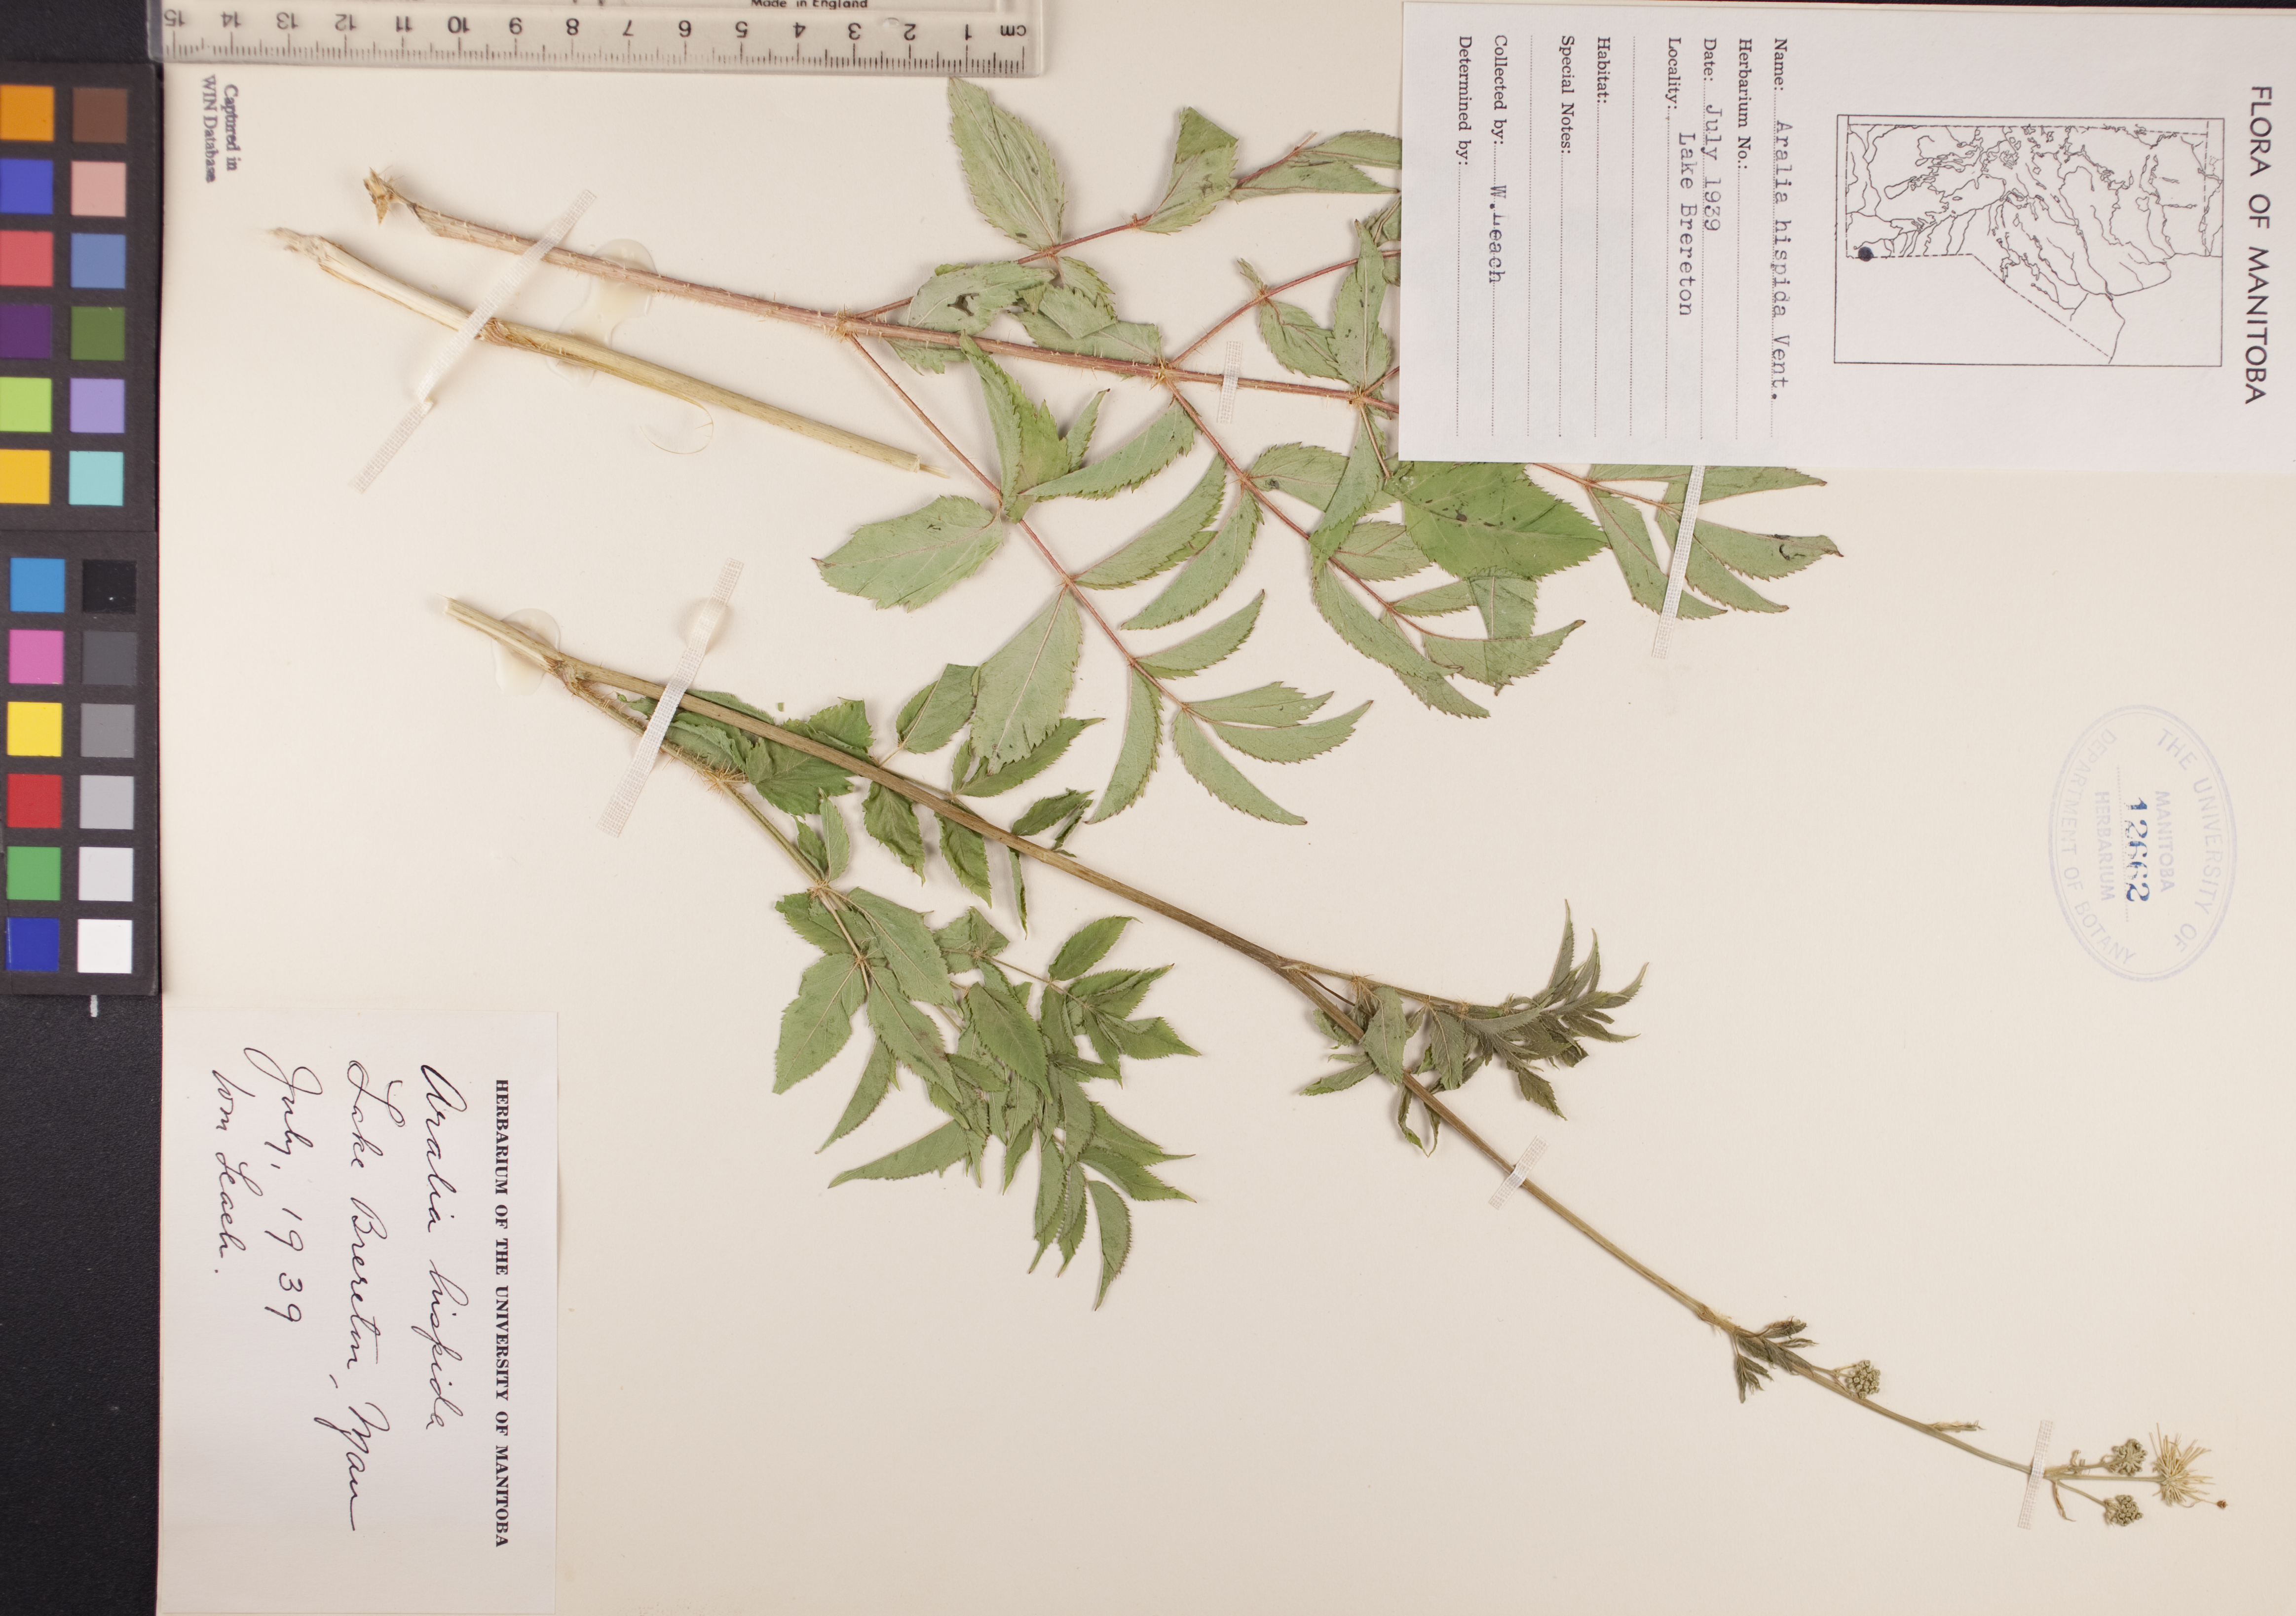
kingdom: Plantae
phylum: Tracheophyta
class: Magnoliopsida
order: Apiales
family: Araliaceae
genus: Aralia
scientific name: Aralia hispida
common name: Bristly sarsaparilla
